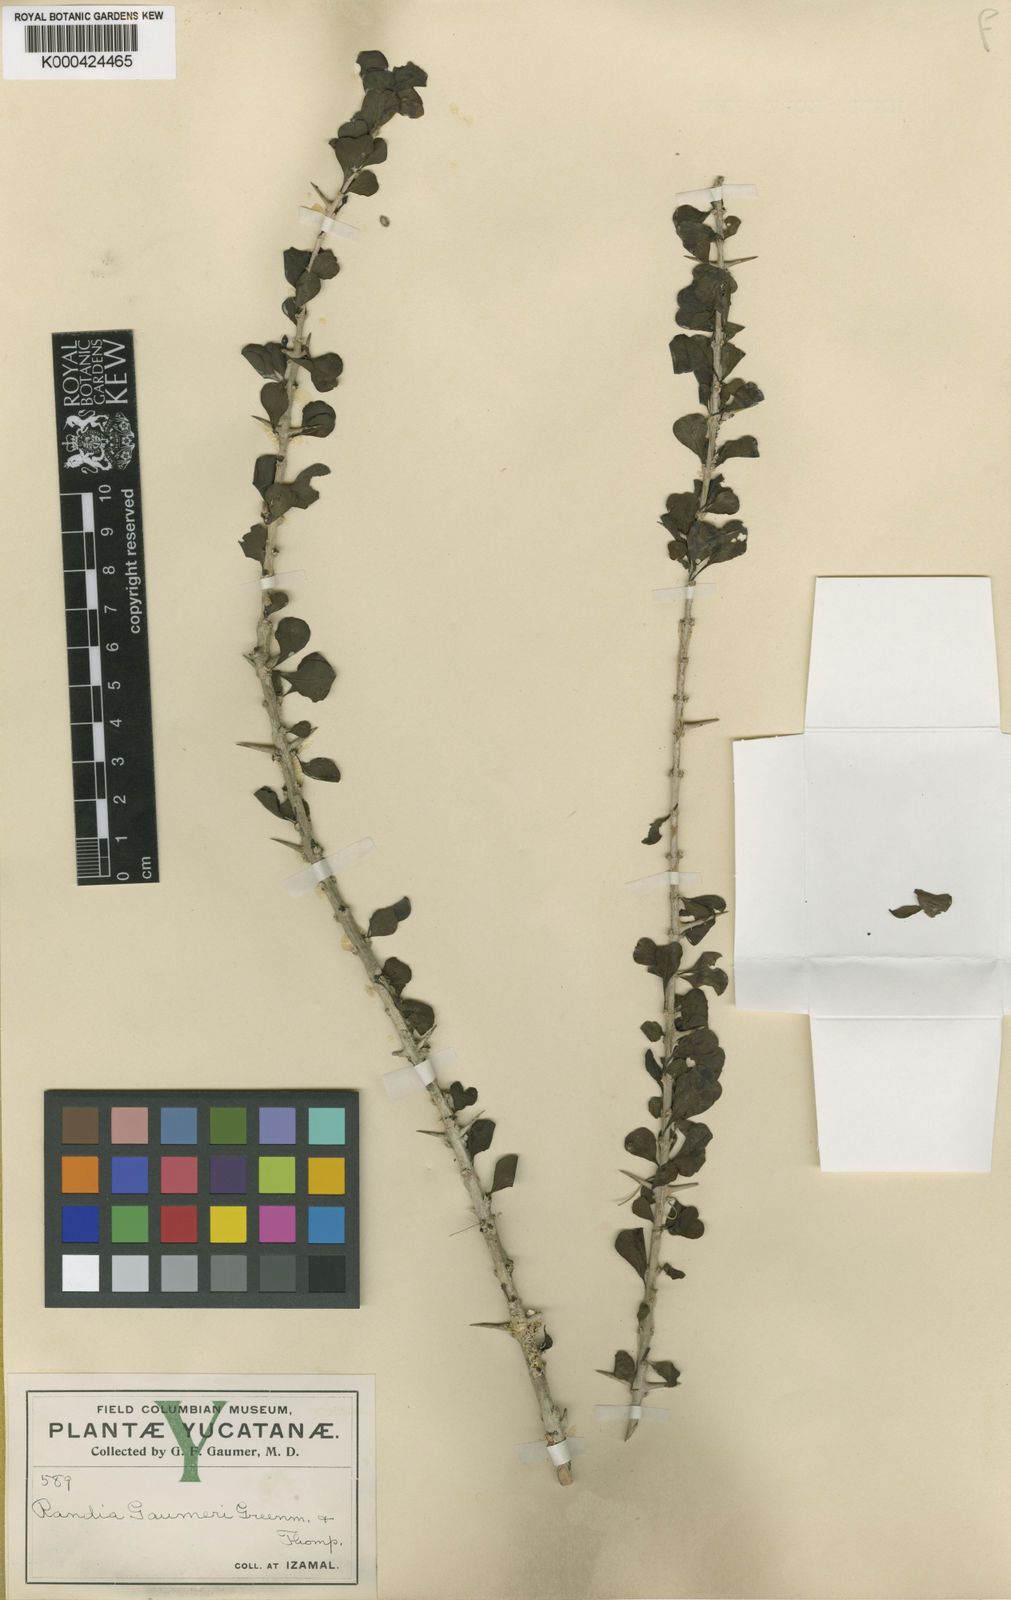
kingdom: Plantae
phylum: Tracheophyta
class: Magnoliopsida
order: Gentianales
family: Rubiaceae
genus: Randia
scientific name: Randia obcordata
